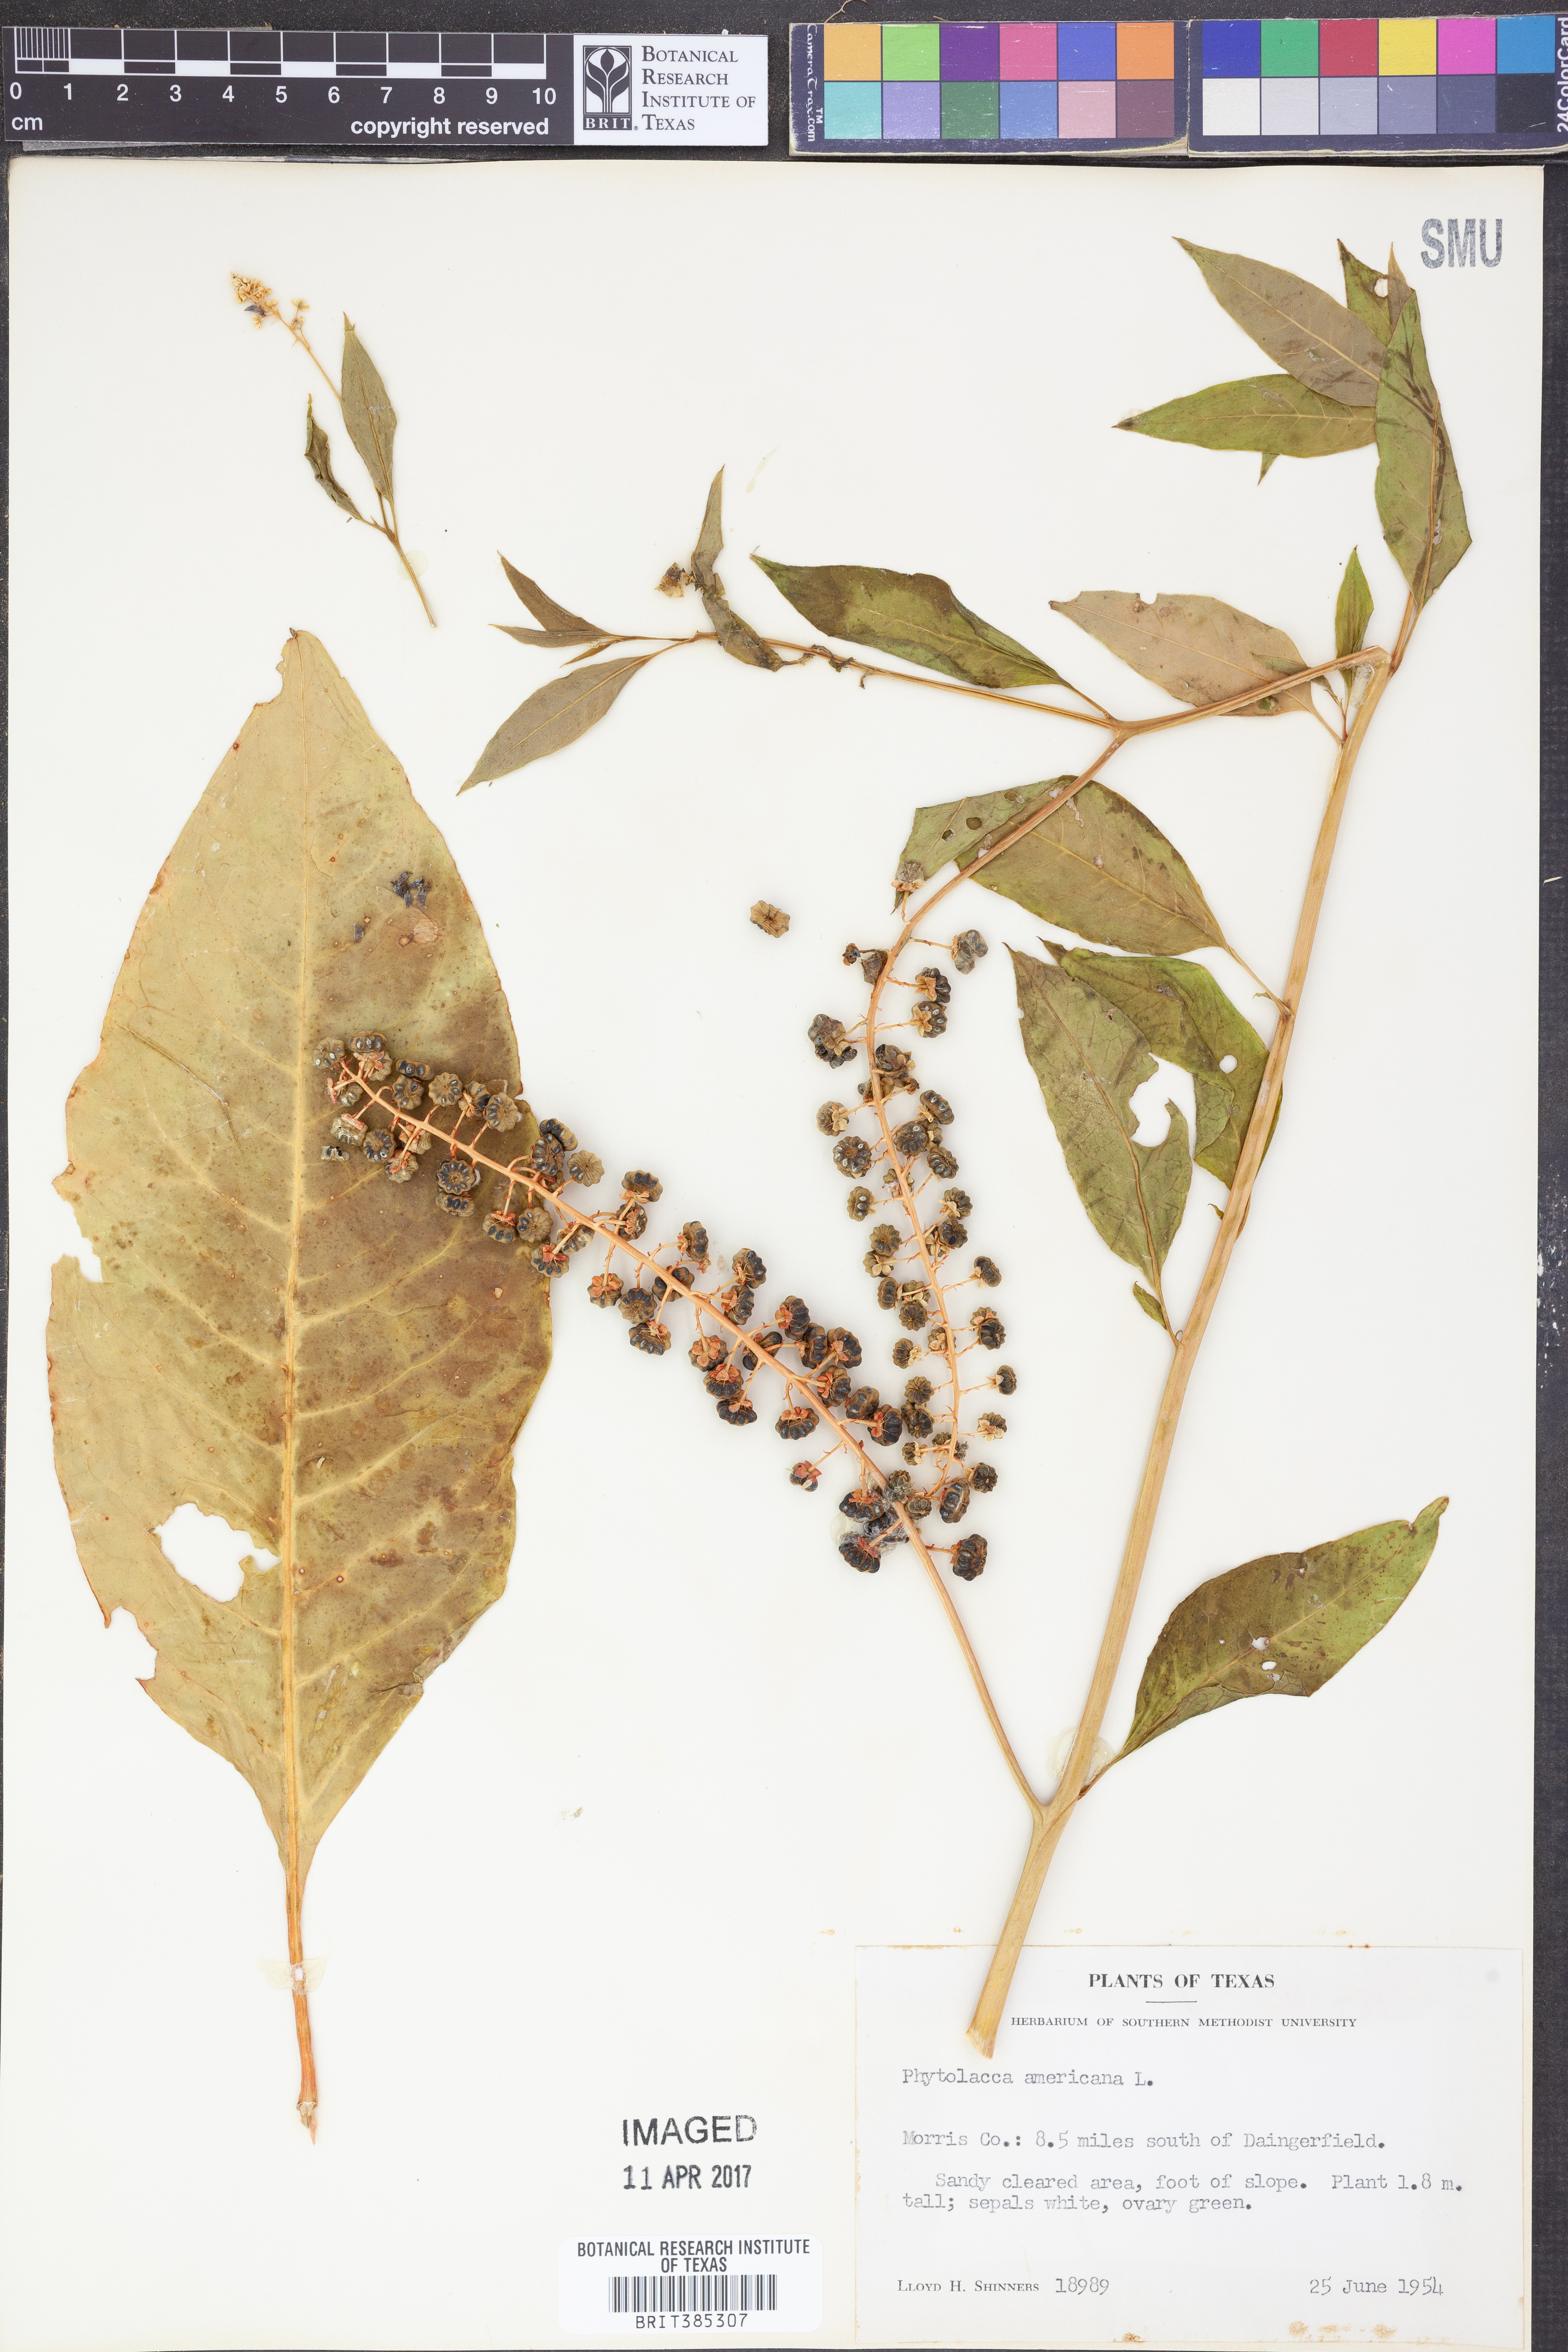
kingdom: Plantae
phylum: Tracheophyta
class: Magnoliopsida
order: Caryophyllales
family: Phytolaccaceae
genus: Phytolacca
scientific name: Phytolacca americana
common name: American pokeweed
